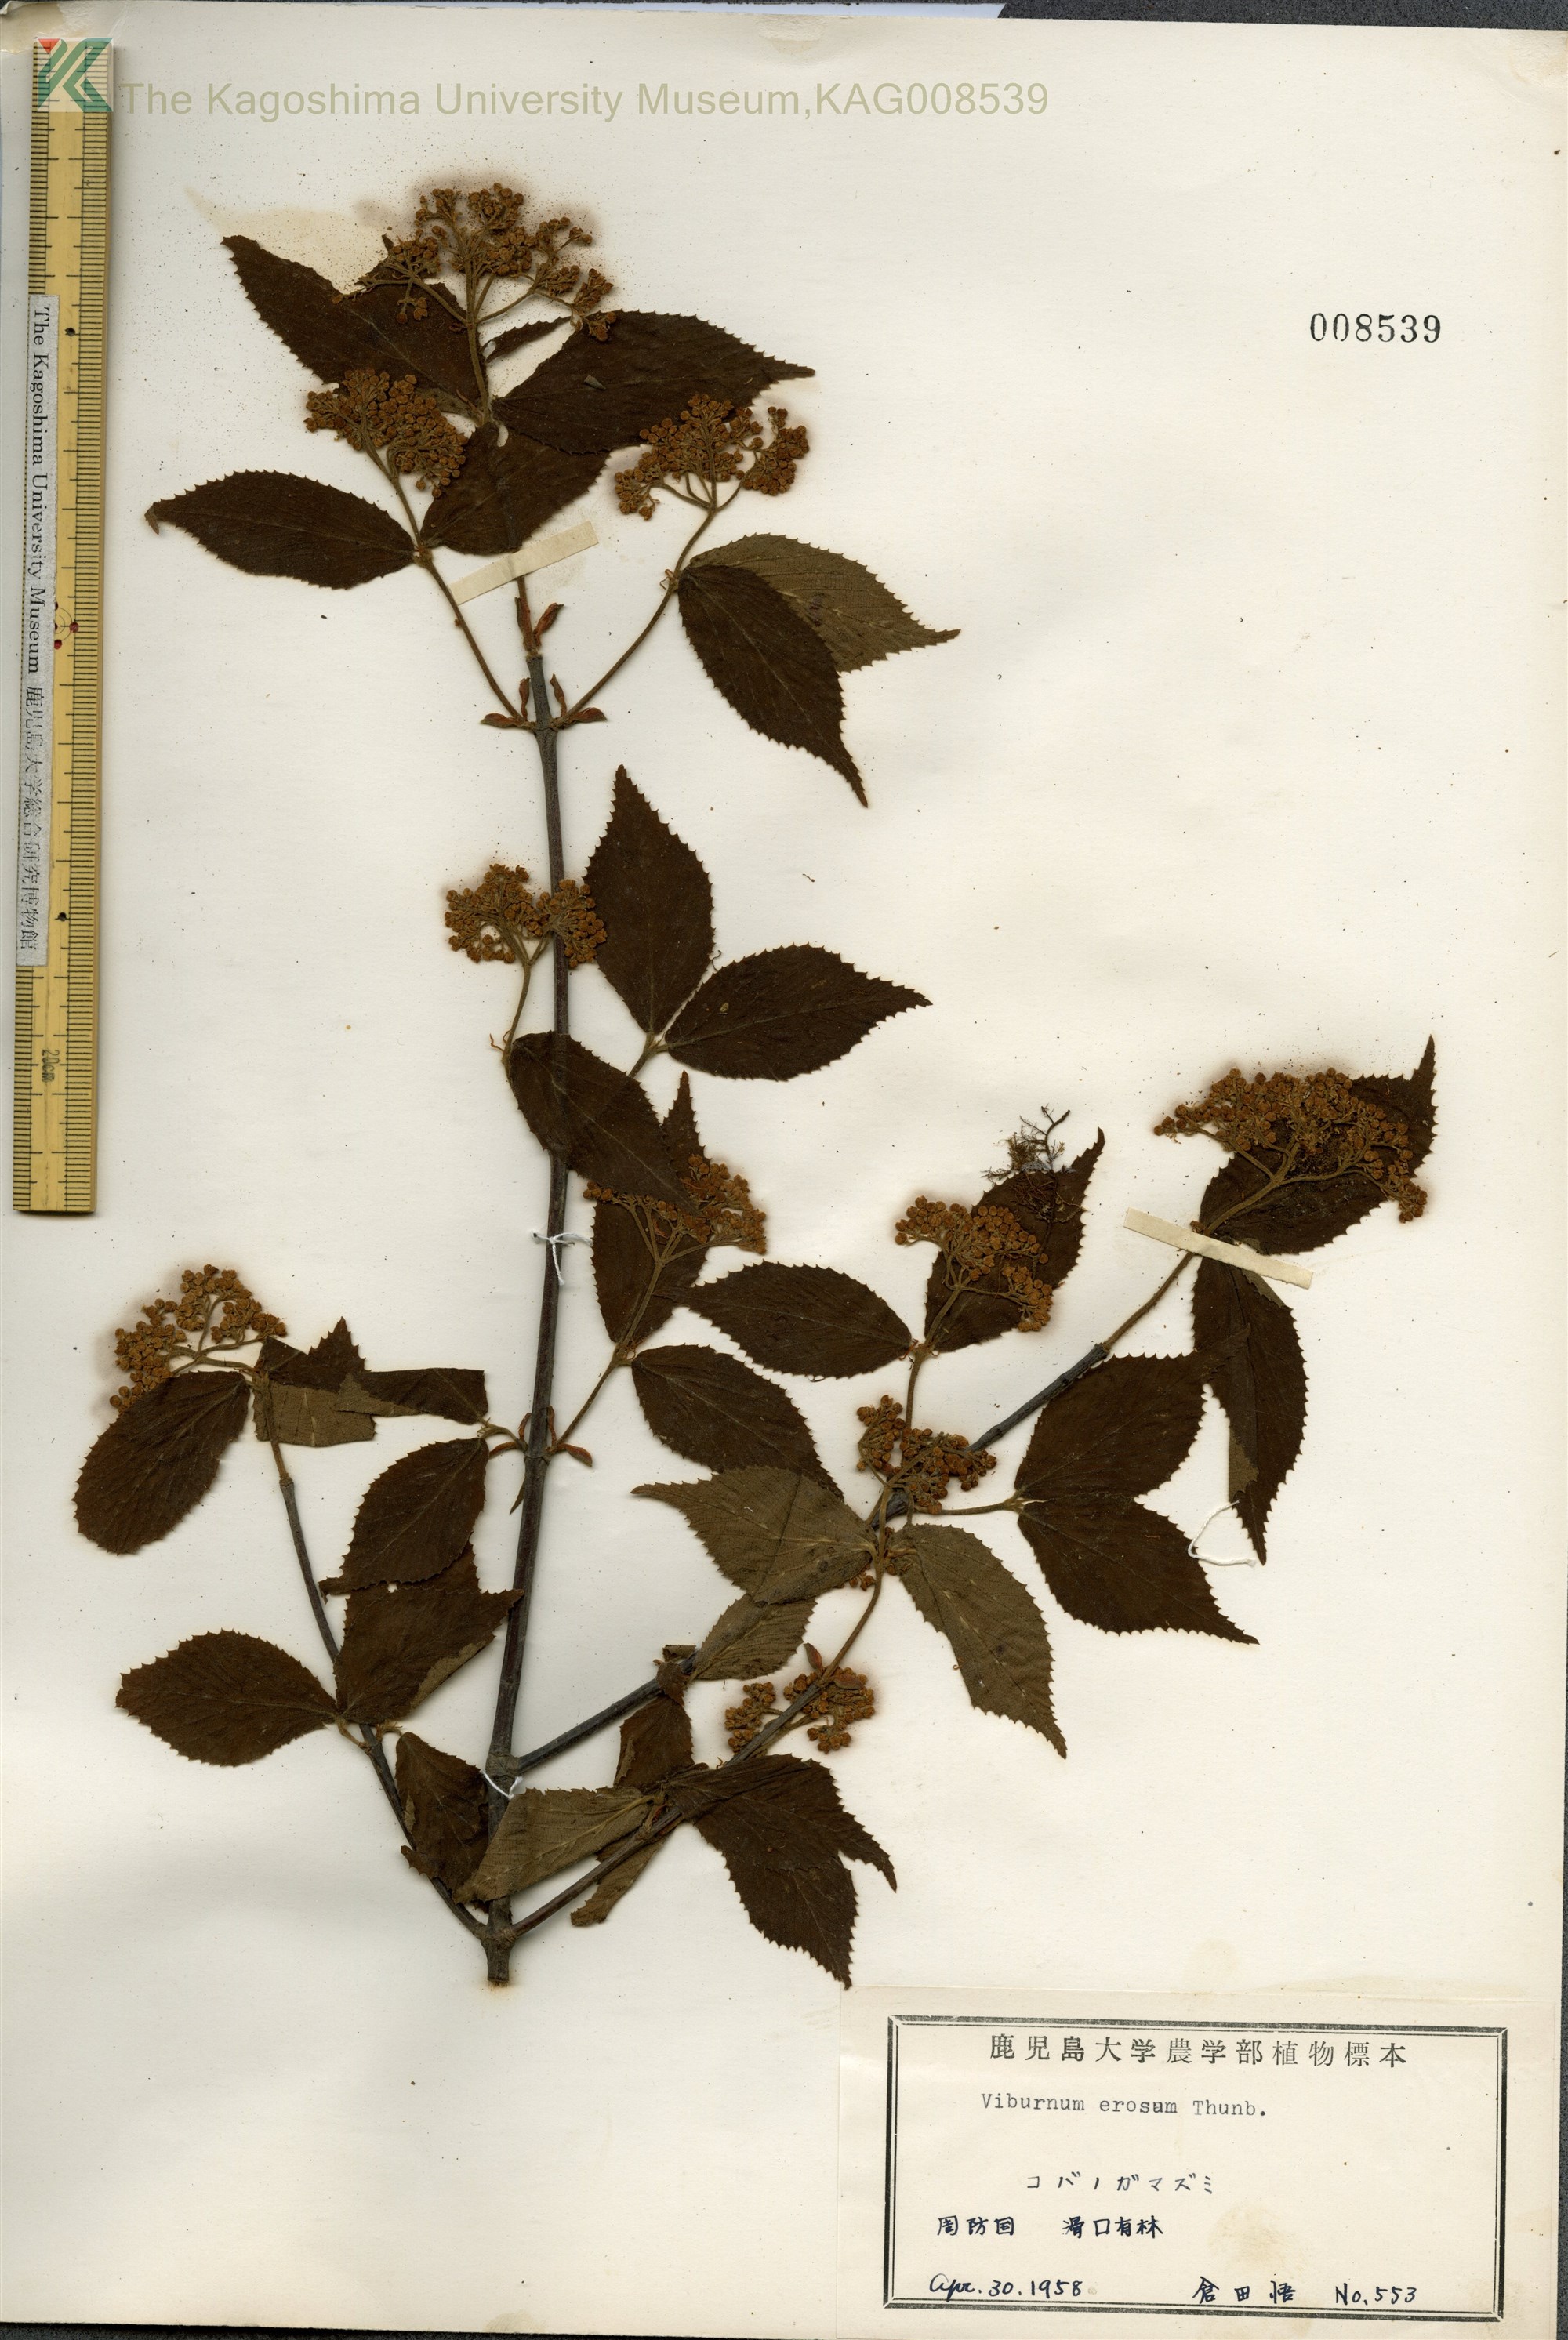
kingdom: Plantae
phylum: Tracheophyta
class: Magnoliopsida
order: Dipsacales
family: Viburnaceae
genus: Viburnum
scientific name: Viburnum erosum
